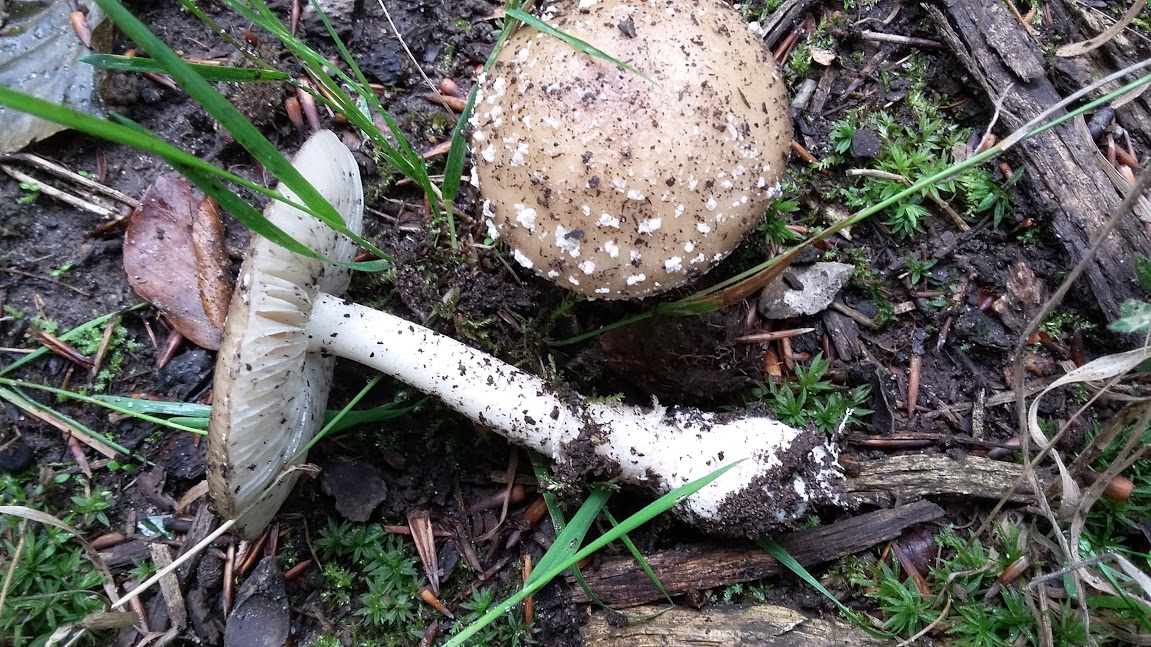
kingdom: Fungi
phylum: Basidiomycota
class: Agaricomycetes
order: Agaricales
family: Amanitaceae
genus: Amanita
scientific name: Amanita pantherina
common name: panter-fluesvamp
